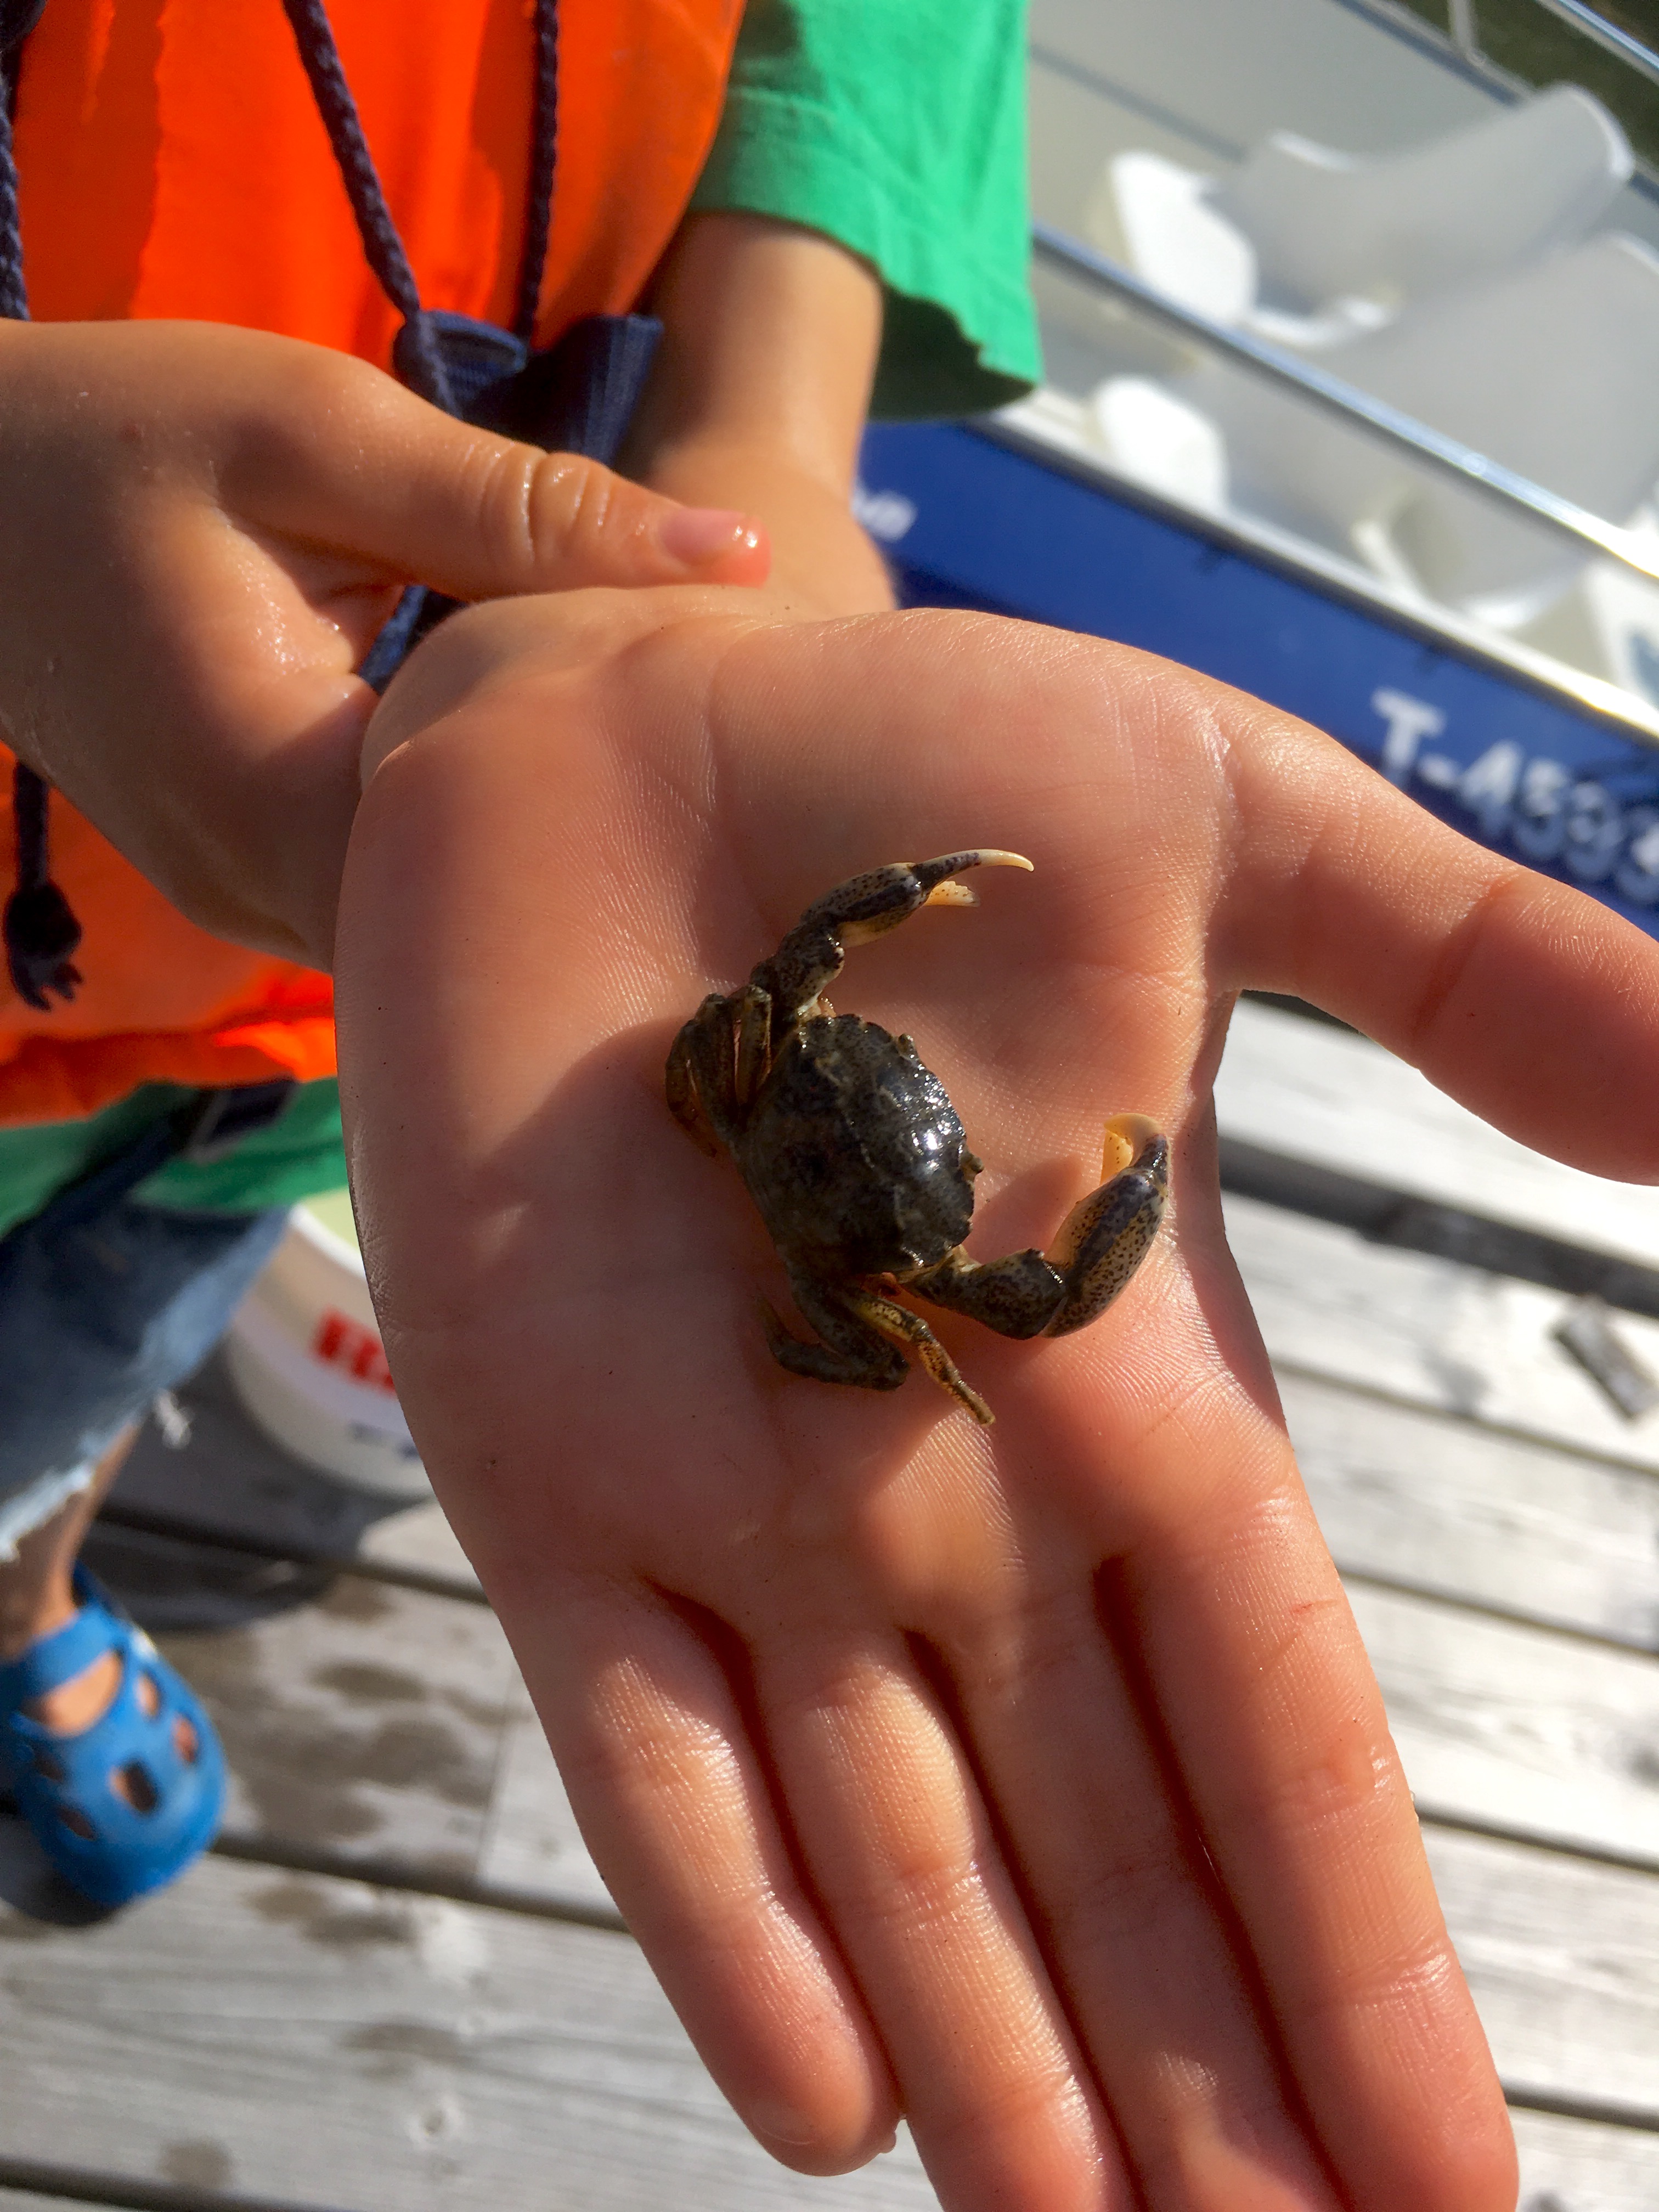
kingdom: Animalia
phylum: Arthropoda
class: Malacostraca
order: Decapoda
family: Panopeidae
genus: Rhithropanopeus
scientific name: Rhithropanopeus harrisii
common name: Dwarf crab
